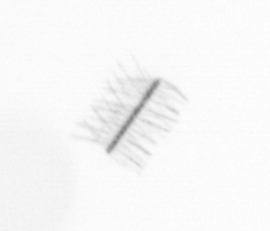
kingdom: Chromista
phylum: Ochrophyta
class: Bacillariophyceae
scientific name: Bacillariophyceae
